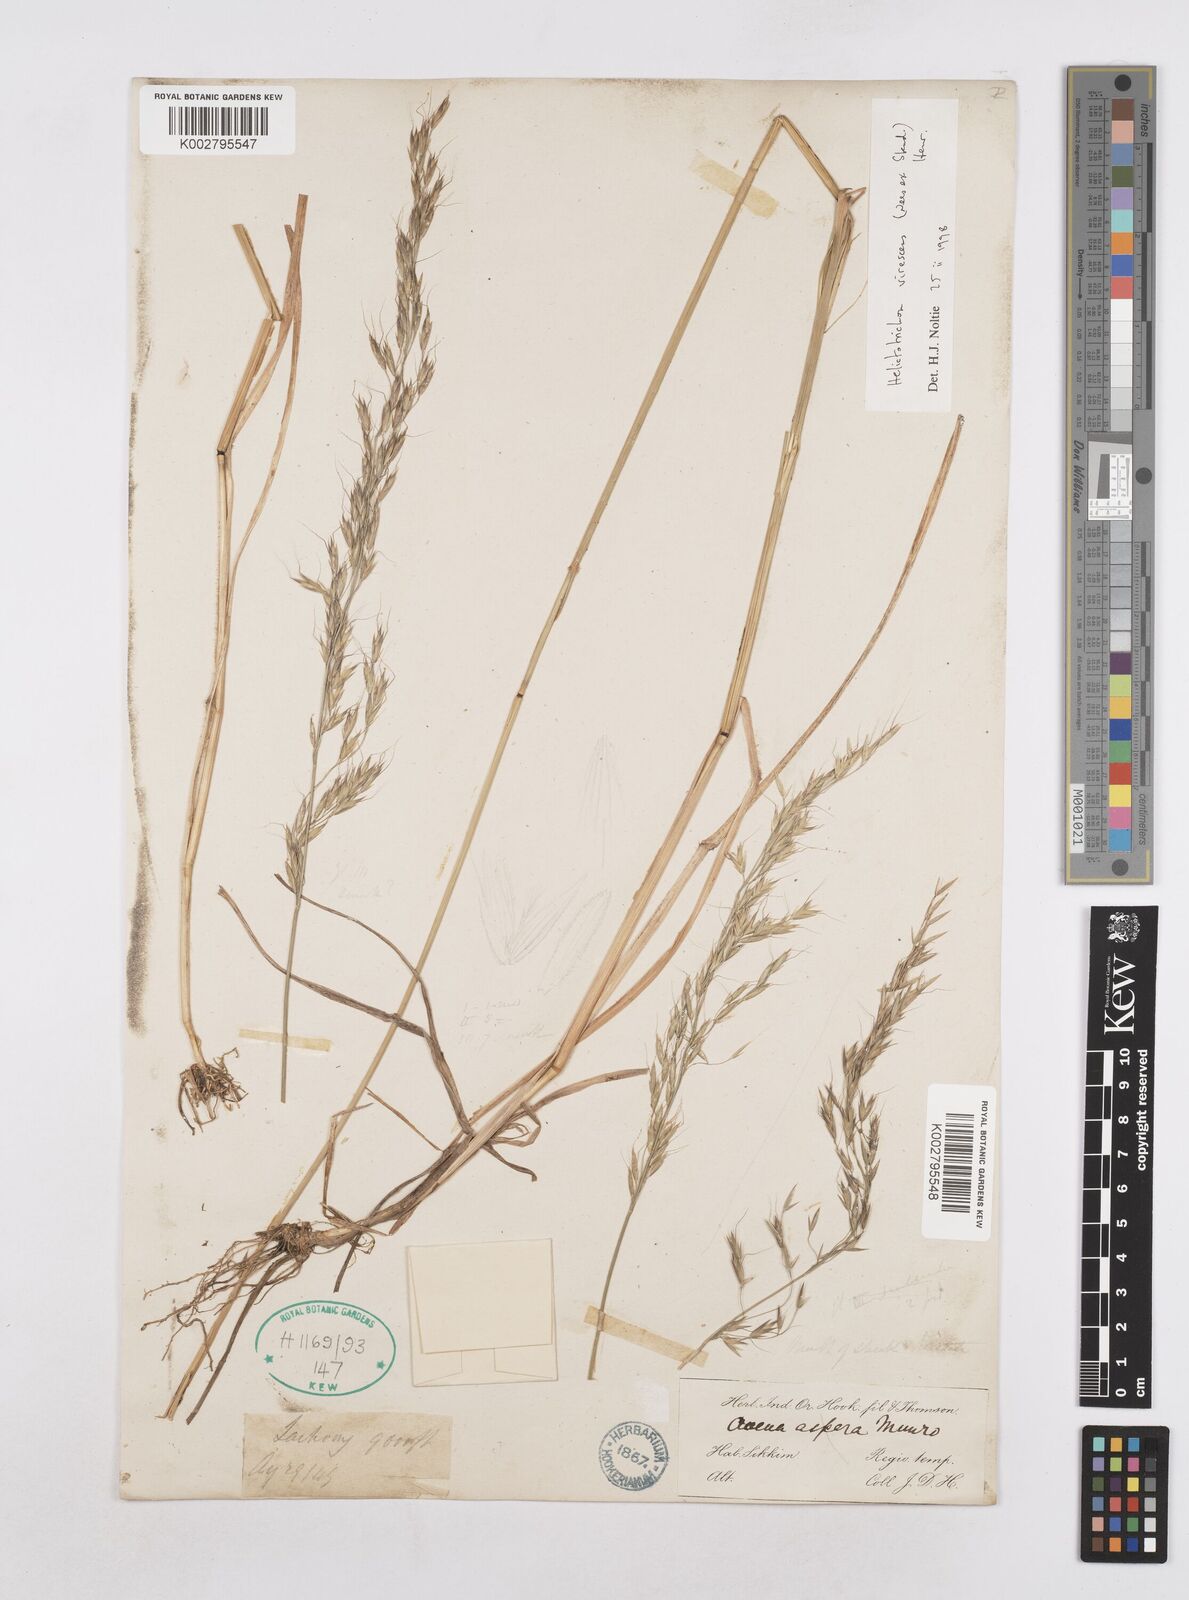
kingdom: Plantae
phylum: Tracheophyta
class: Liliopsida
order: Poales
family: Poaceae
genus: Trisetopsis
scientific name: Trisetopsis junghuhnii
